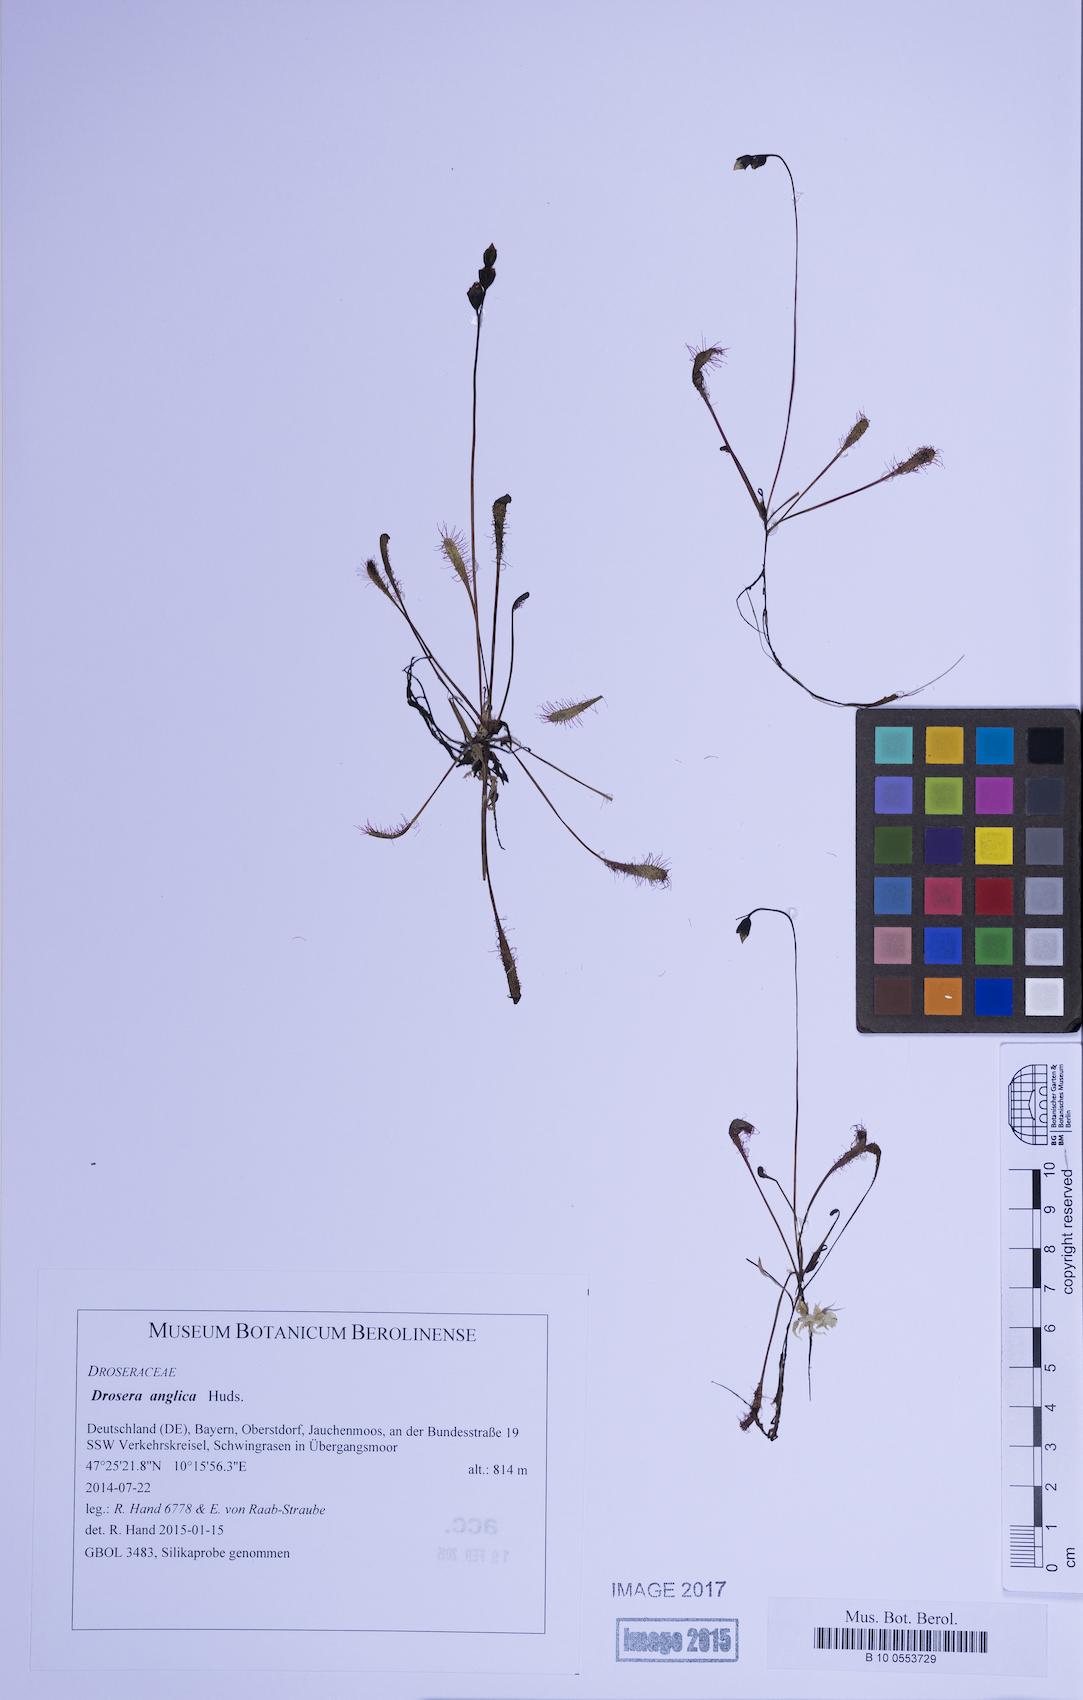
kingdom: Plantae
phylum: Tracheophyta
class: Magnoliopsida
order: Caryophyllales
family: Droseraceae
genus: Drosera
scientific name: Drosera anglica
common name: Great sundew
